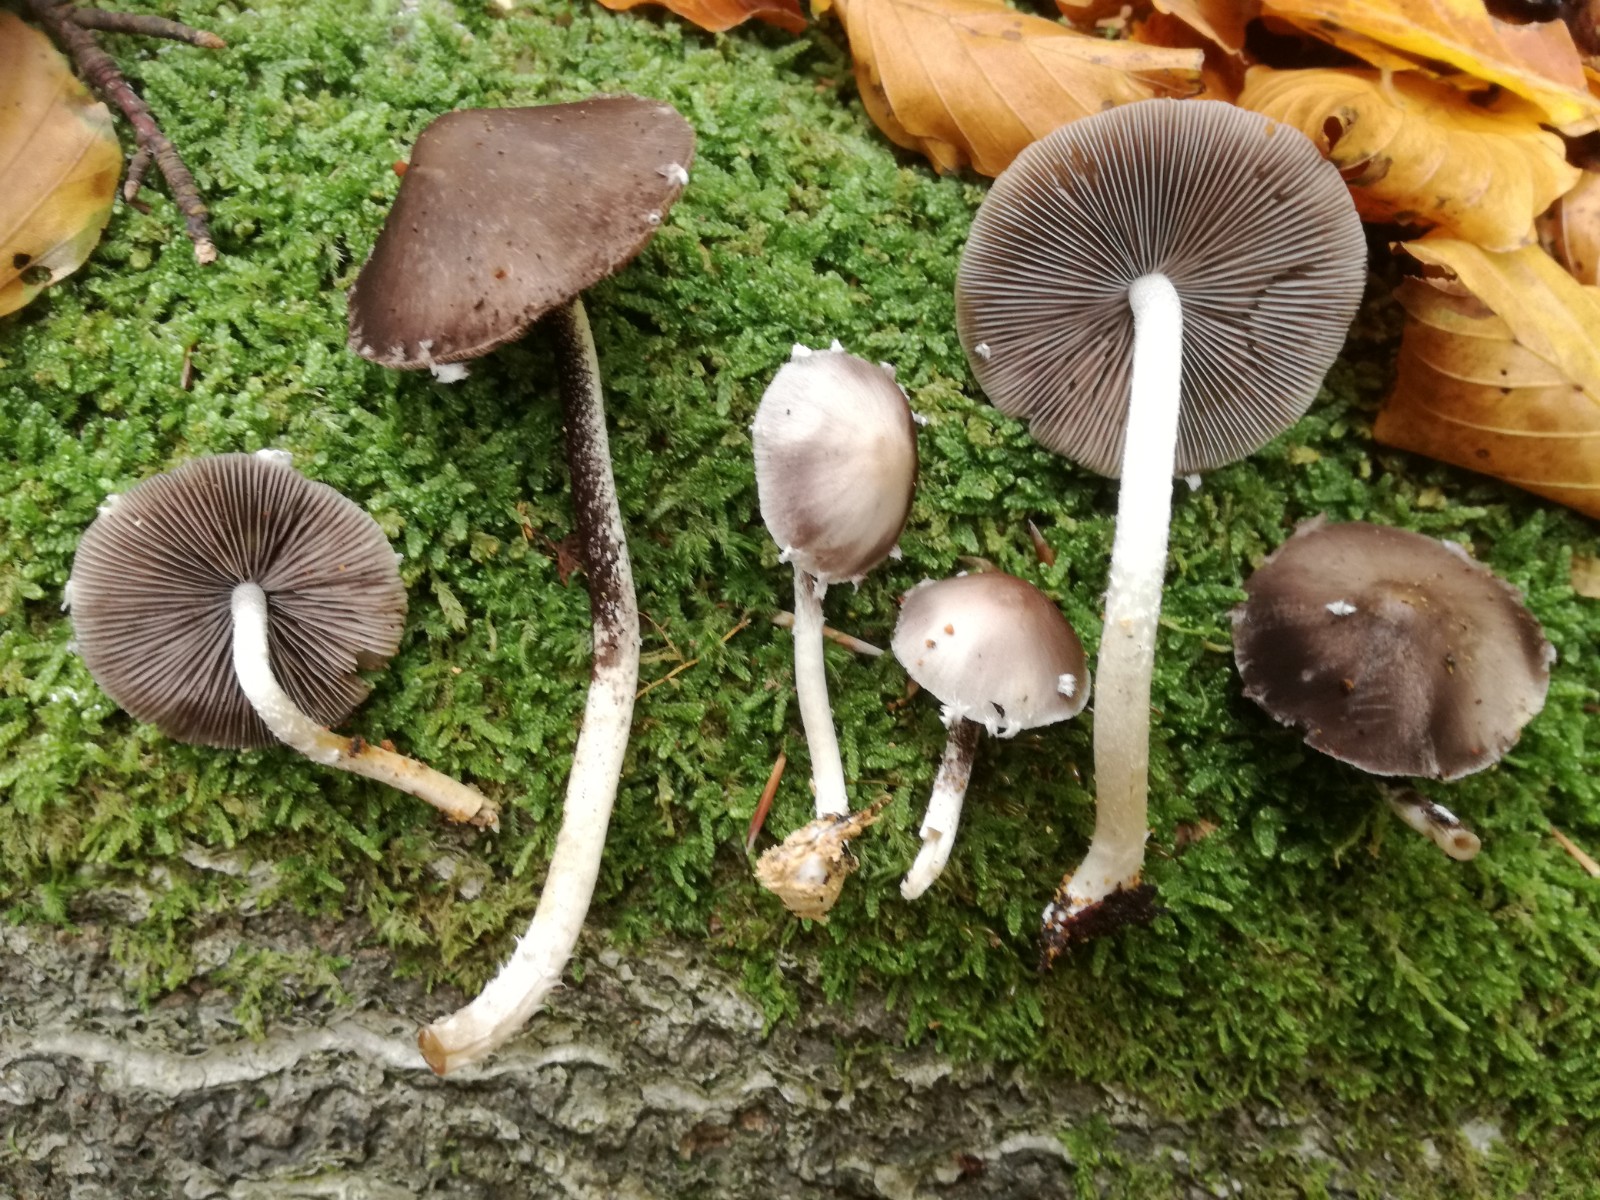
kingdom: Fungi
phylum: Basidiomycota
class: Agaricomycetes
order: Agaricales
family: Psathyrellaceae
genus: Coprinopsis
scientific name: Coprinopsis
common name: blækhat
